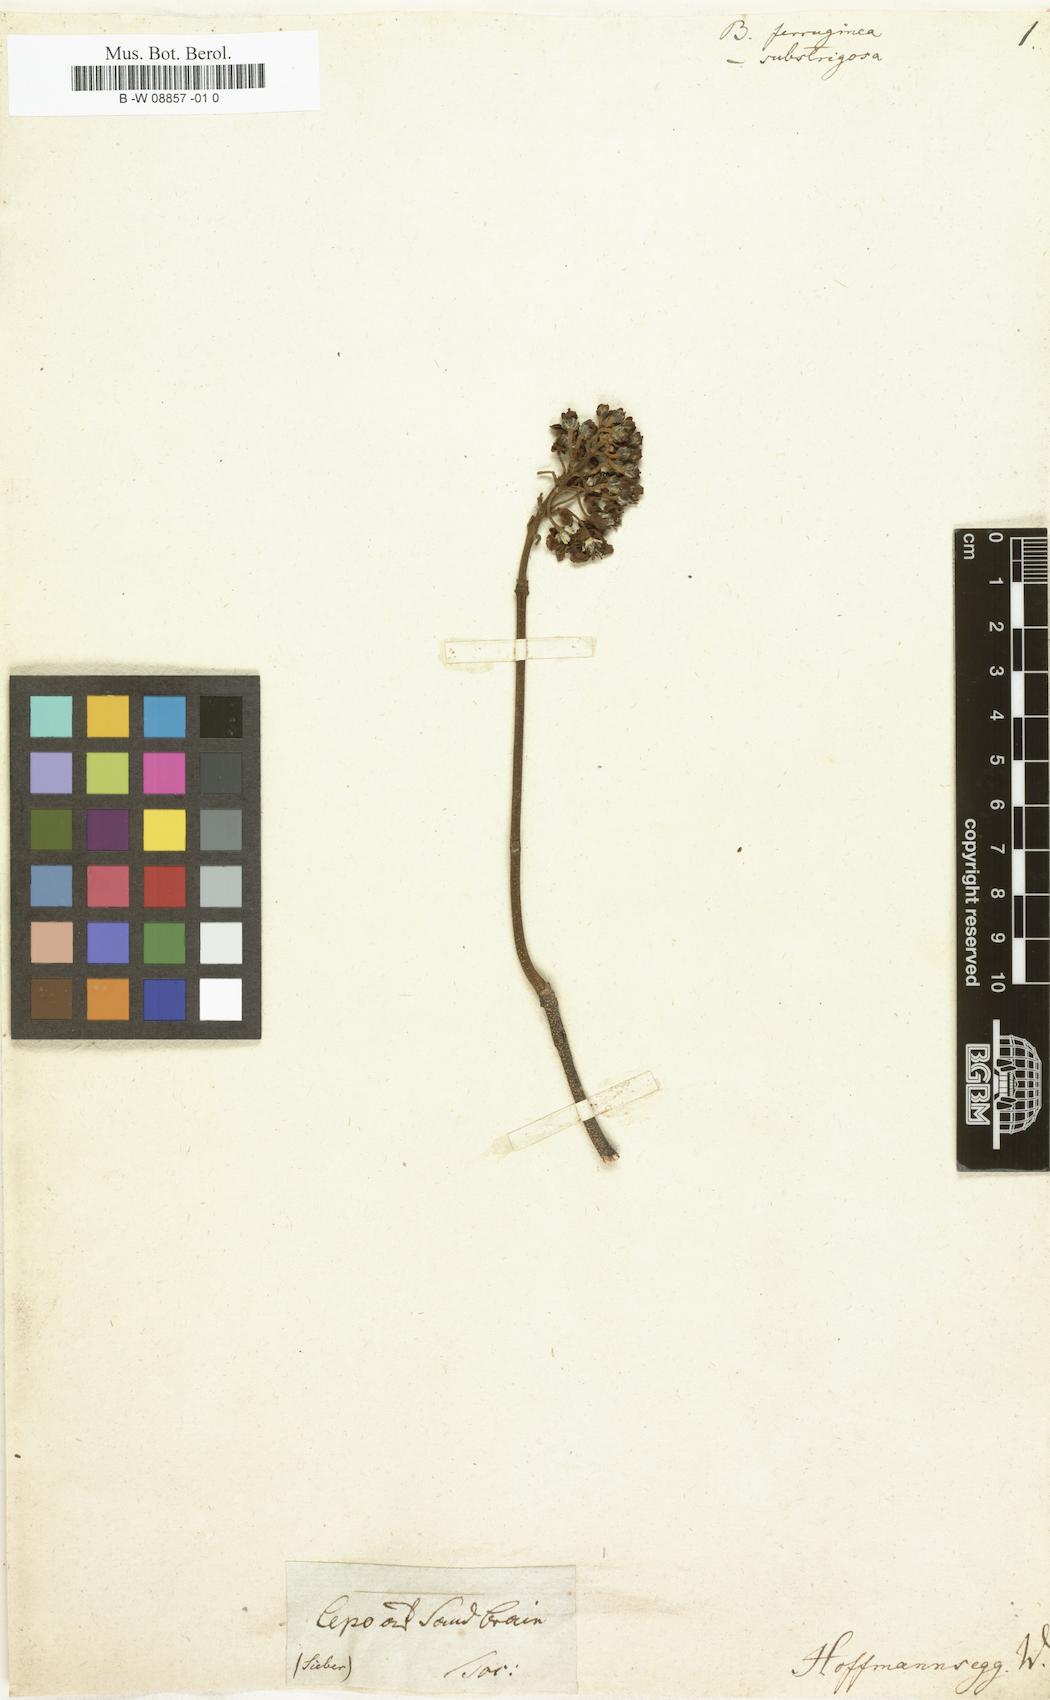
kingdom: Plantae
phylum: Tracheophyta
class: Magnoliopsida
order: Malpighiales
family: Malpighiaceae
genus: Bronwenia
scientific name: Bronwenia ferruginea
